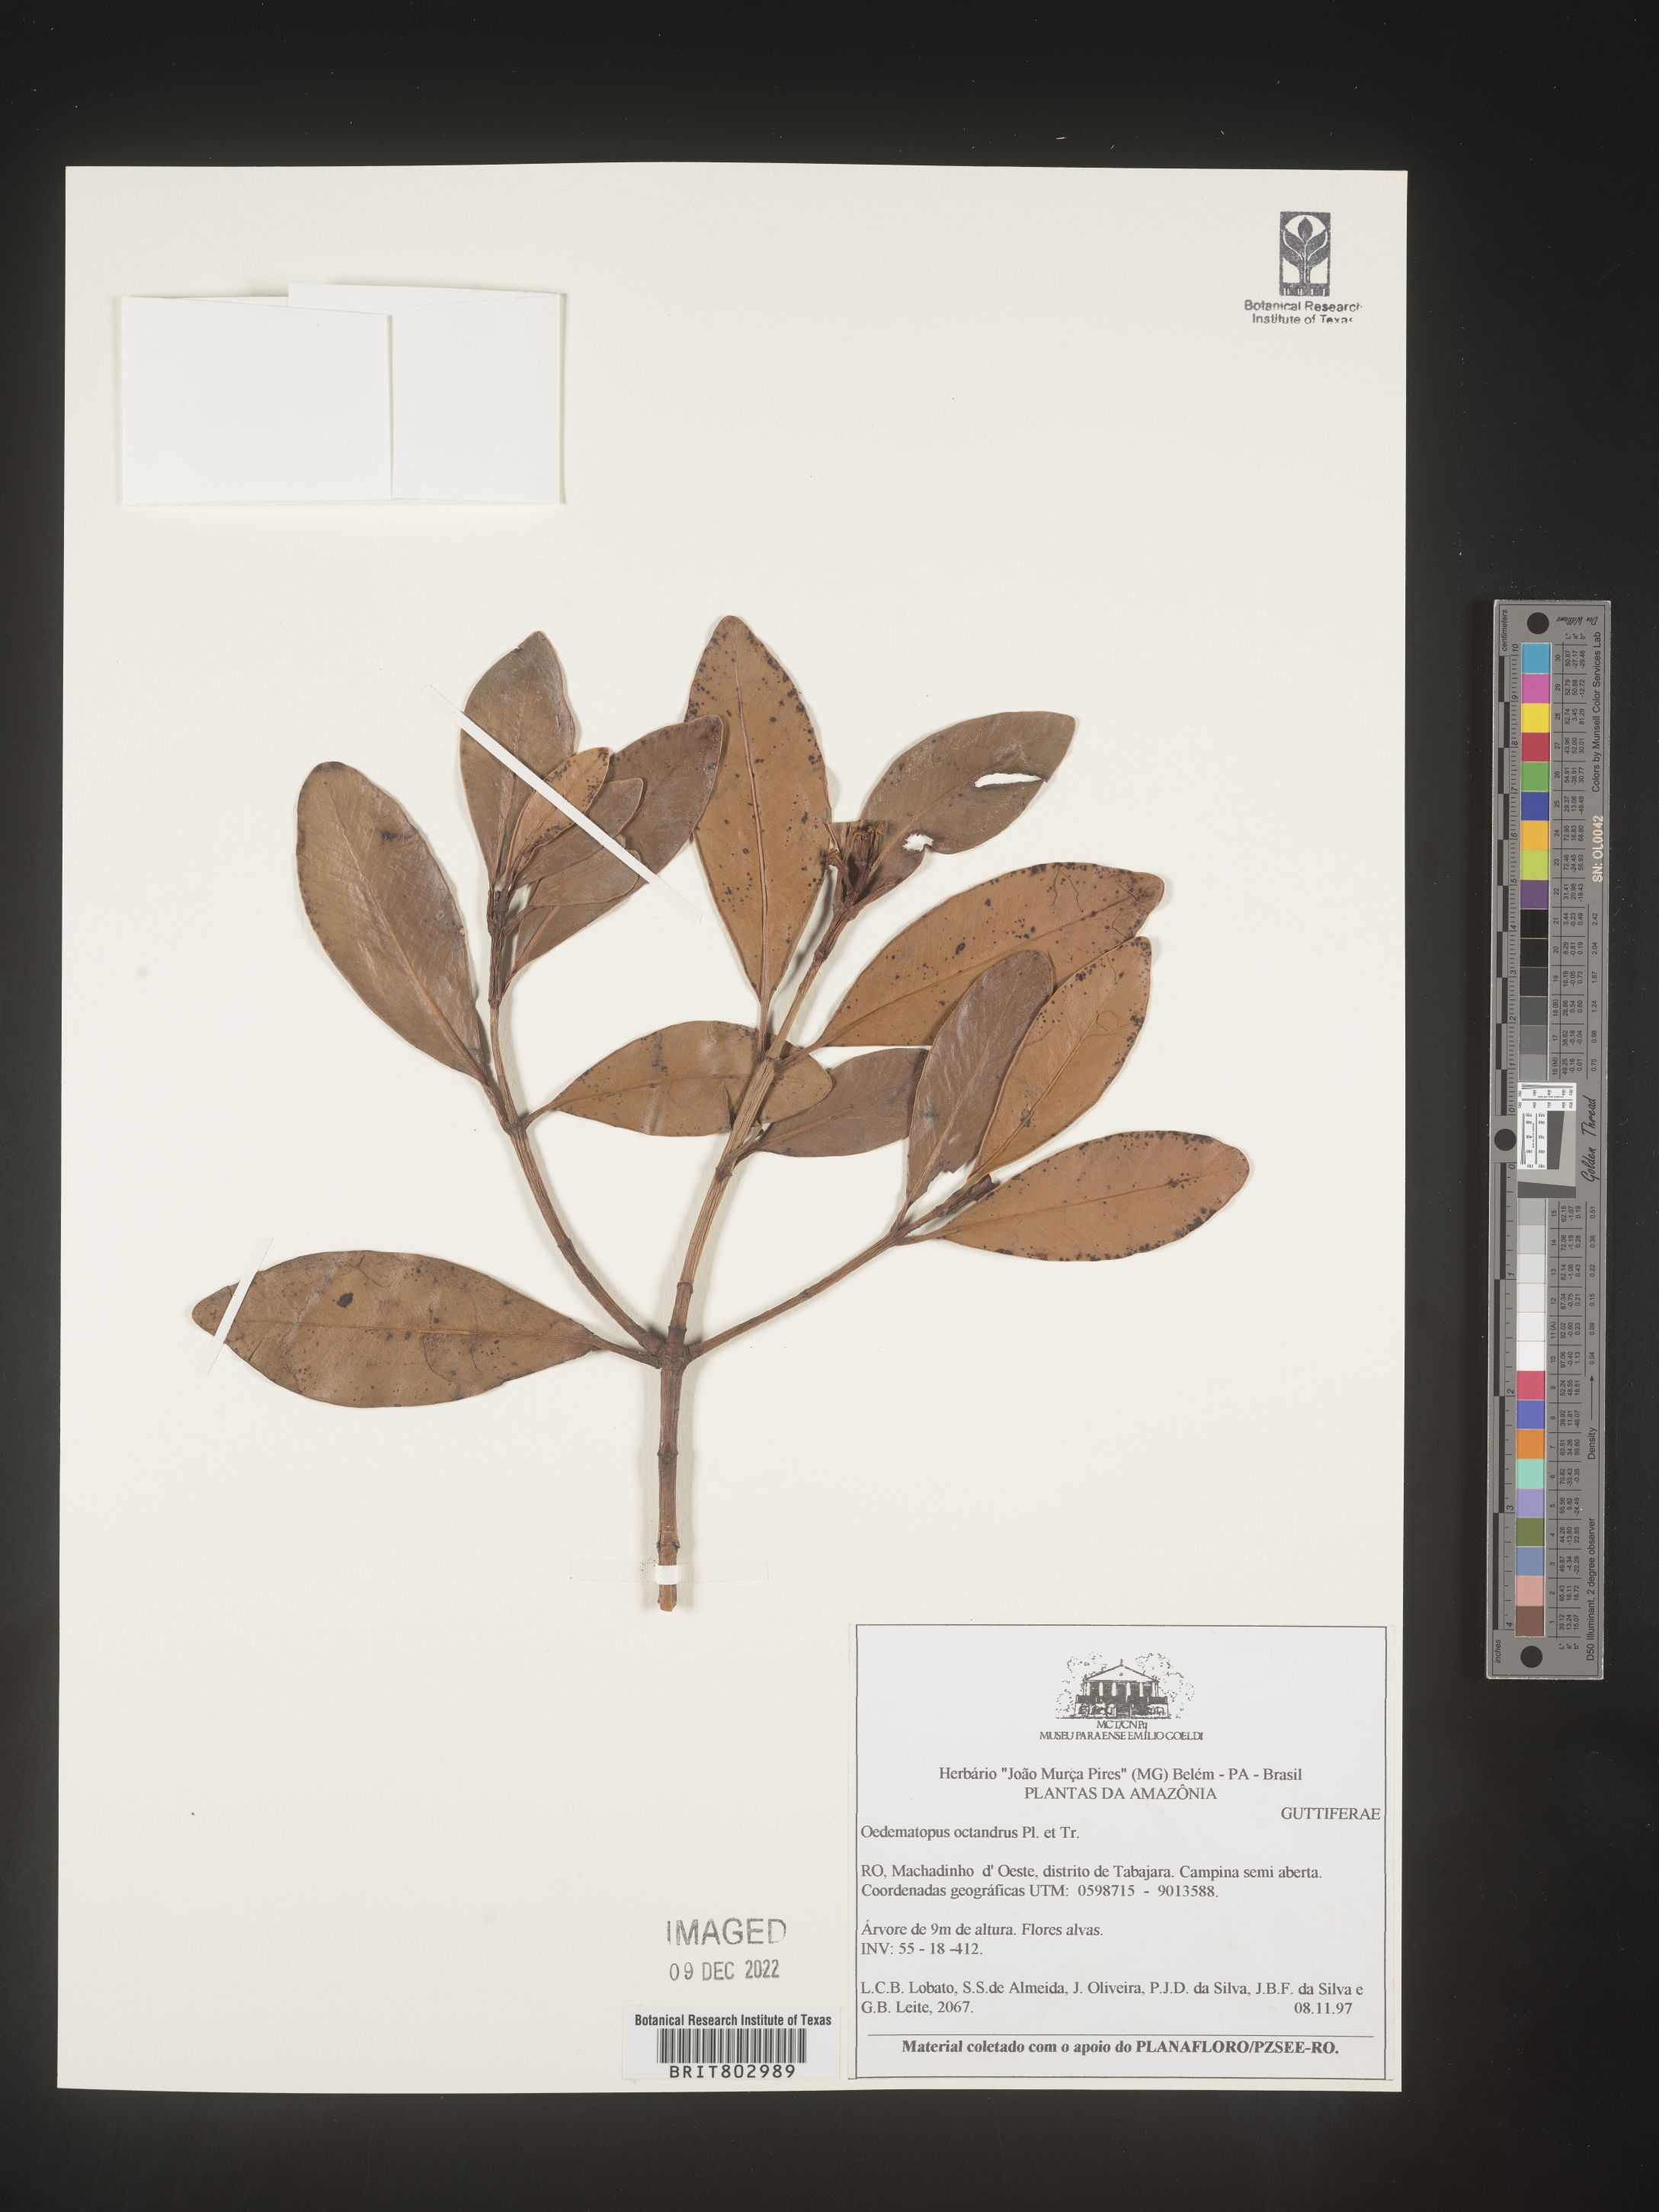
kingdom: Animalia
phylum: Arthropoda
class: Insecta
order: Diptera
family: Dolichopodidae
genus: Oedematopus
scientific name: Oedematopus
